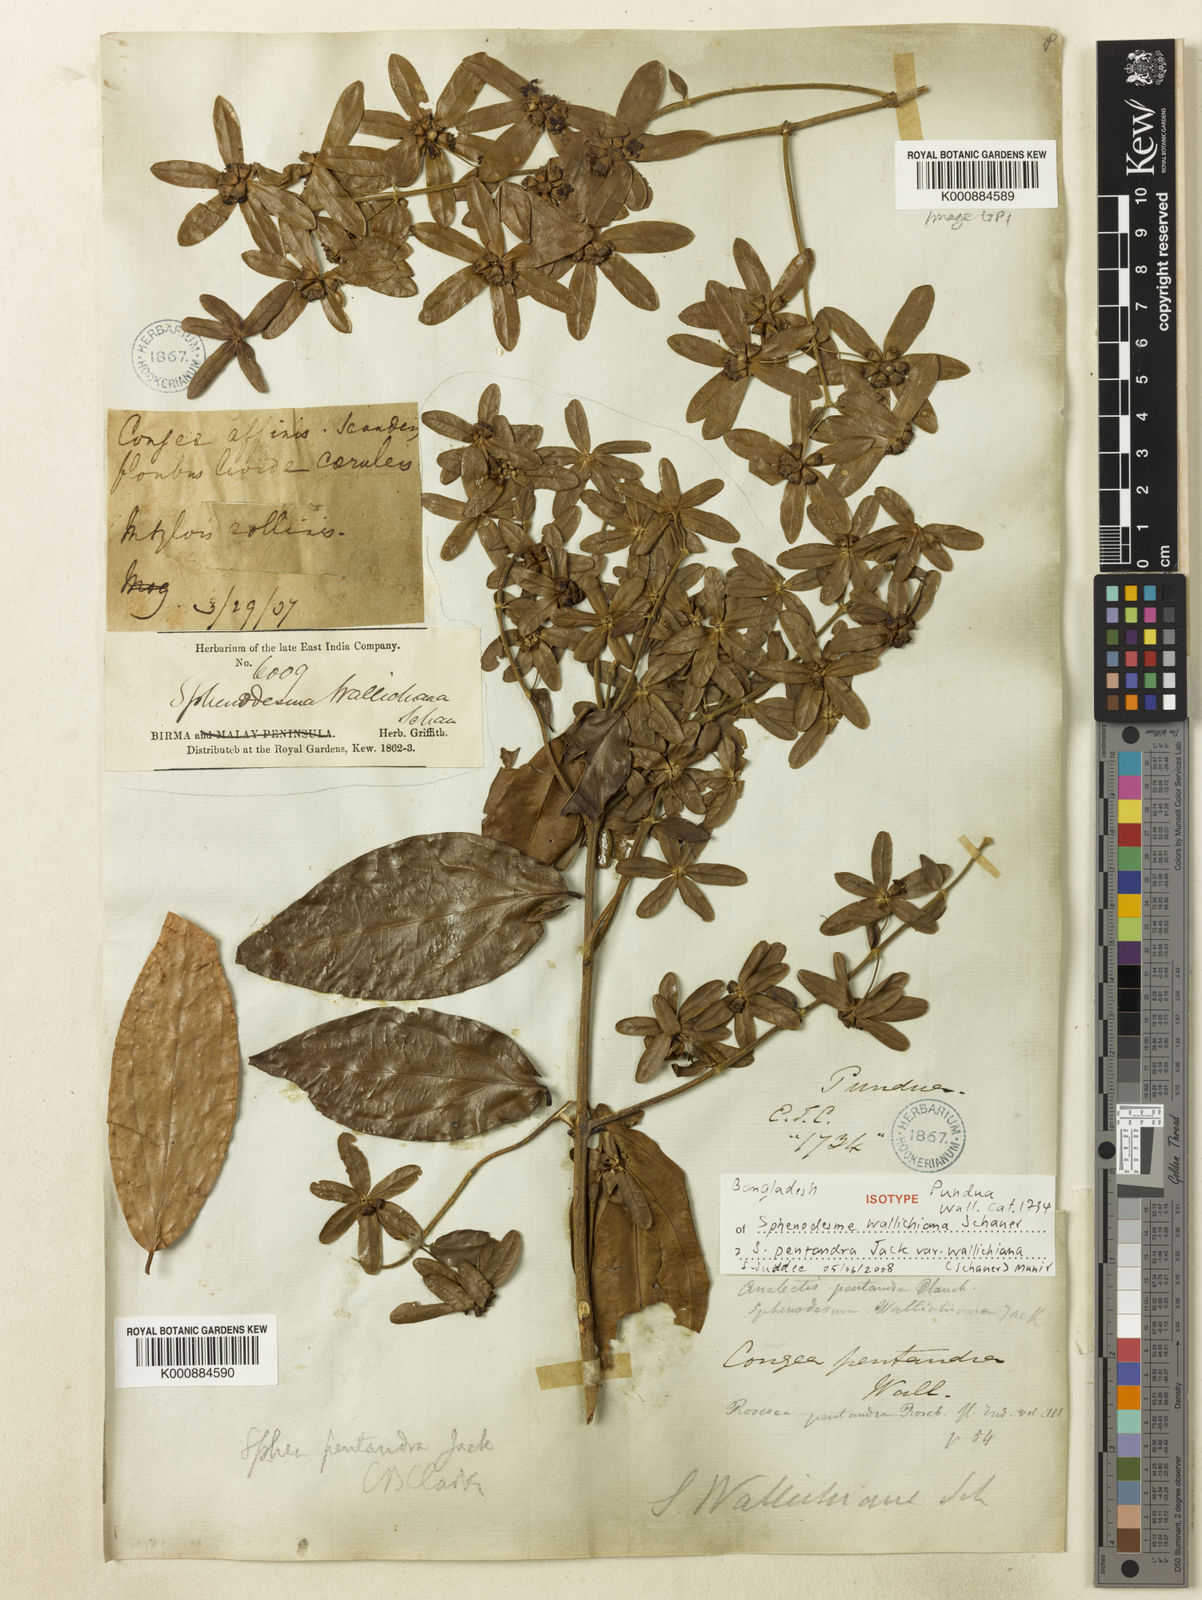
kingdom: Plantae
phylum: Tracheophyta
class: Magnoliopsida
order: Lamiales
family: Lamiaceae
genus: Sphenodesme
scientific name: Sphenodesme pentandra
